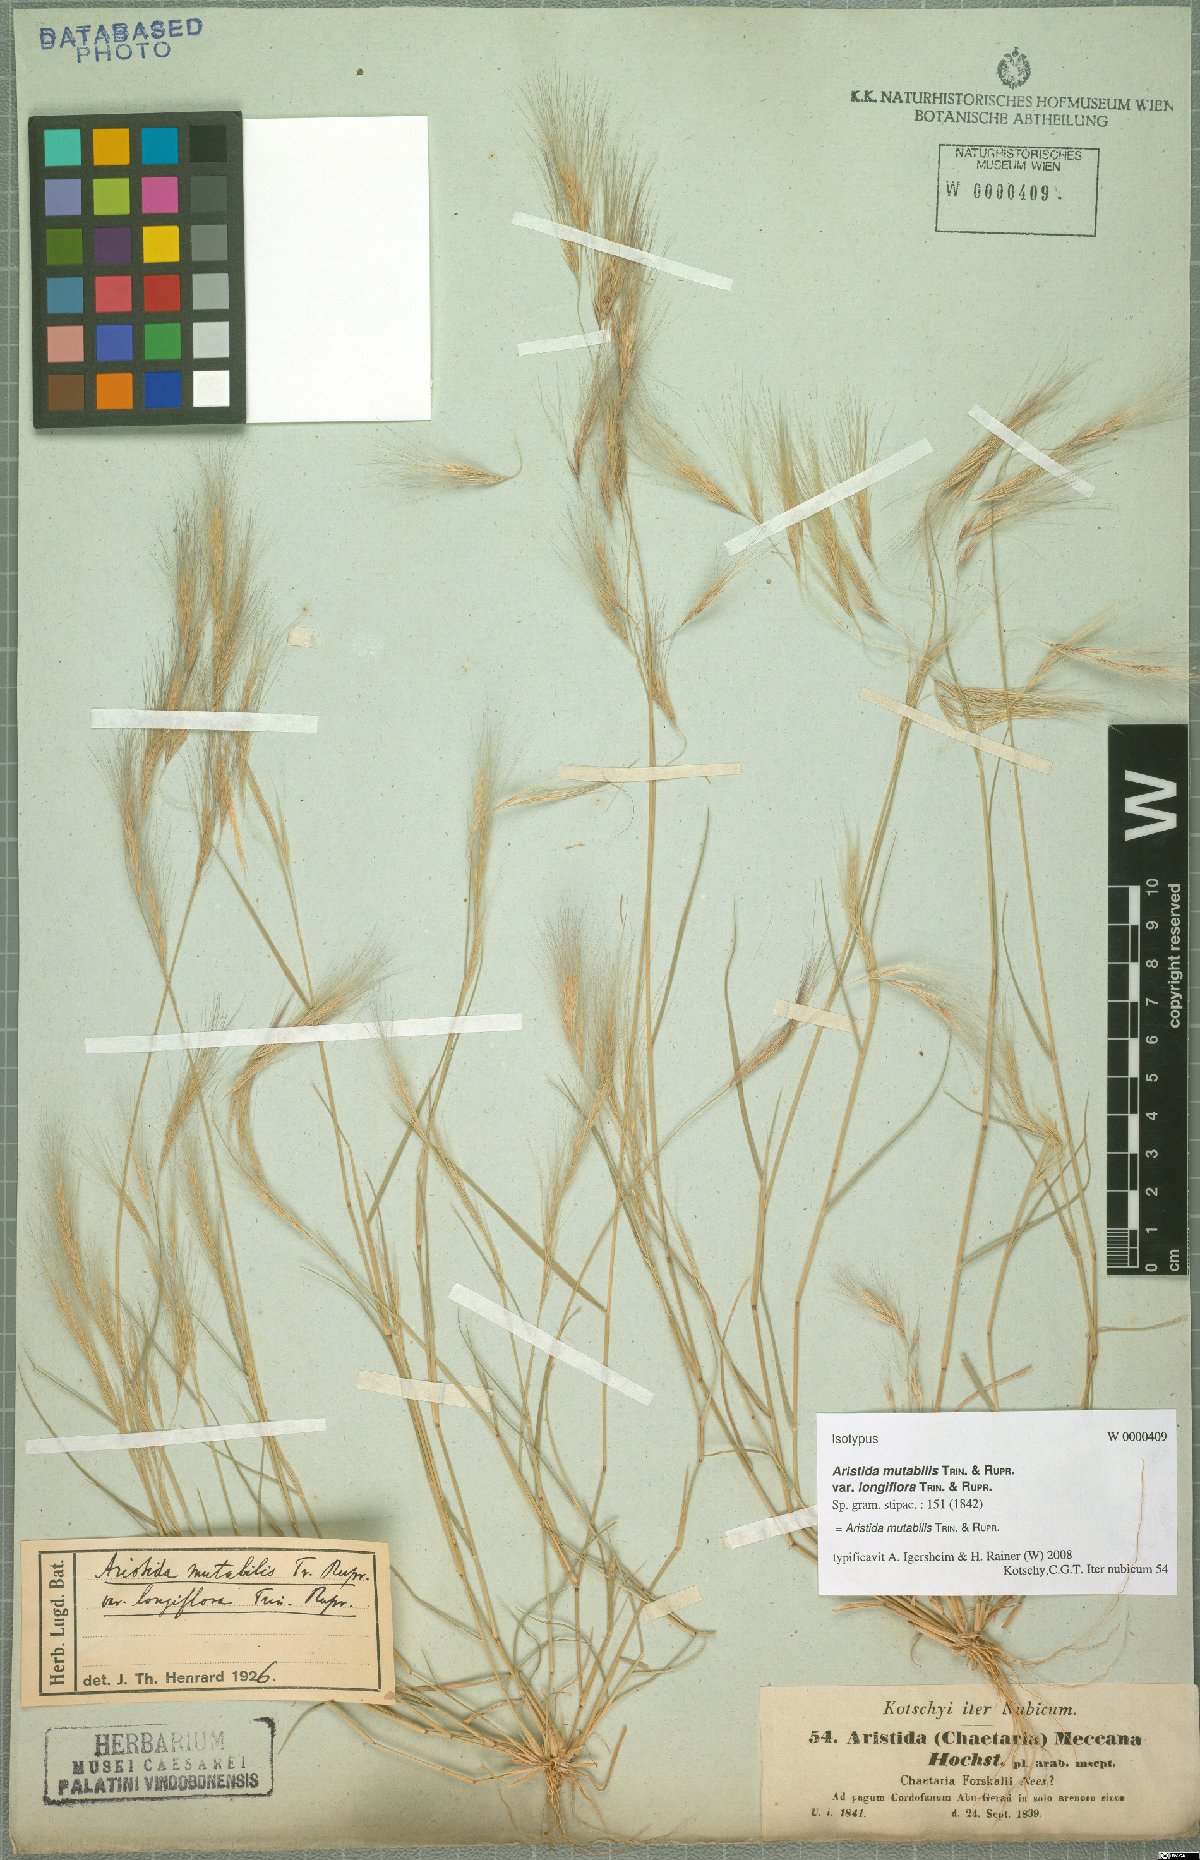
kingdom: Plantae
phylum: Tracheophyta
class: Liliopsida
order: Poales
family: Poaceae
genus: Aristida
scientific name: Aristida mutabilis
